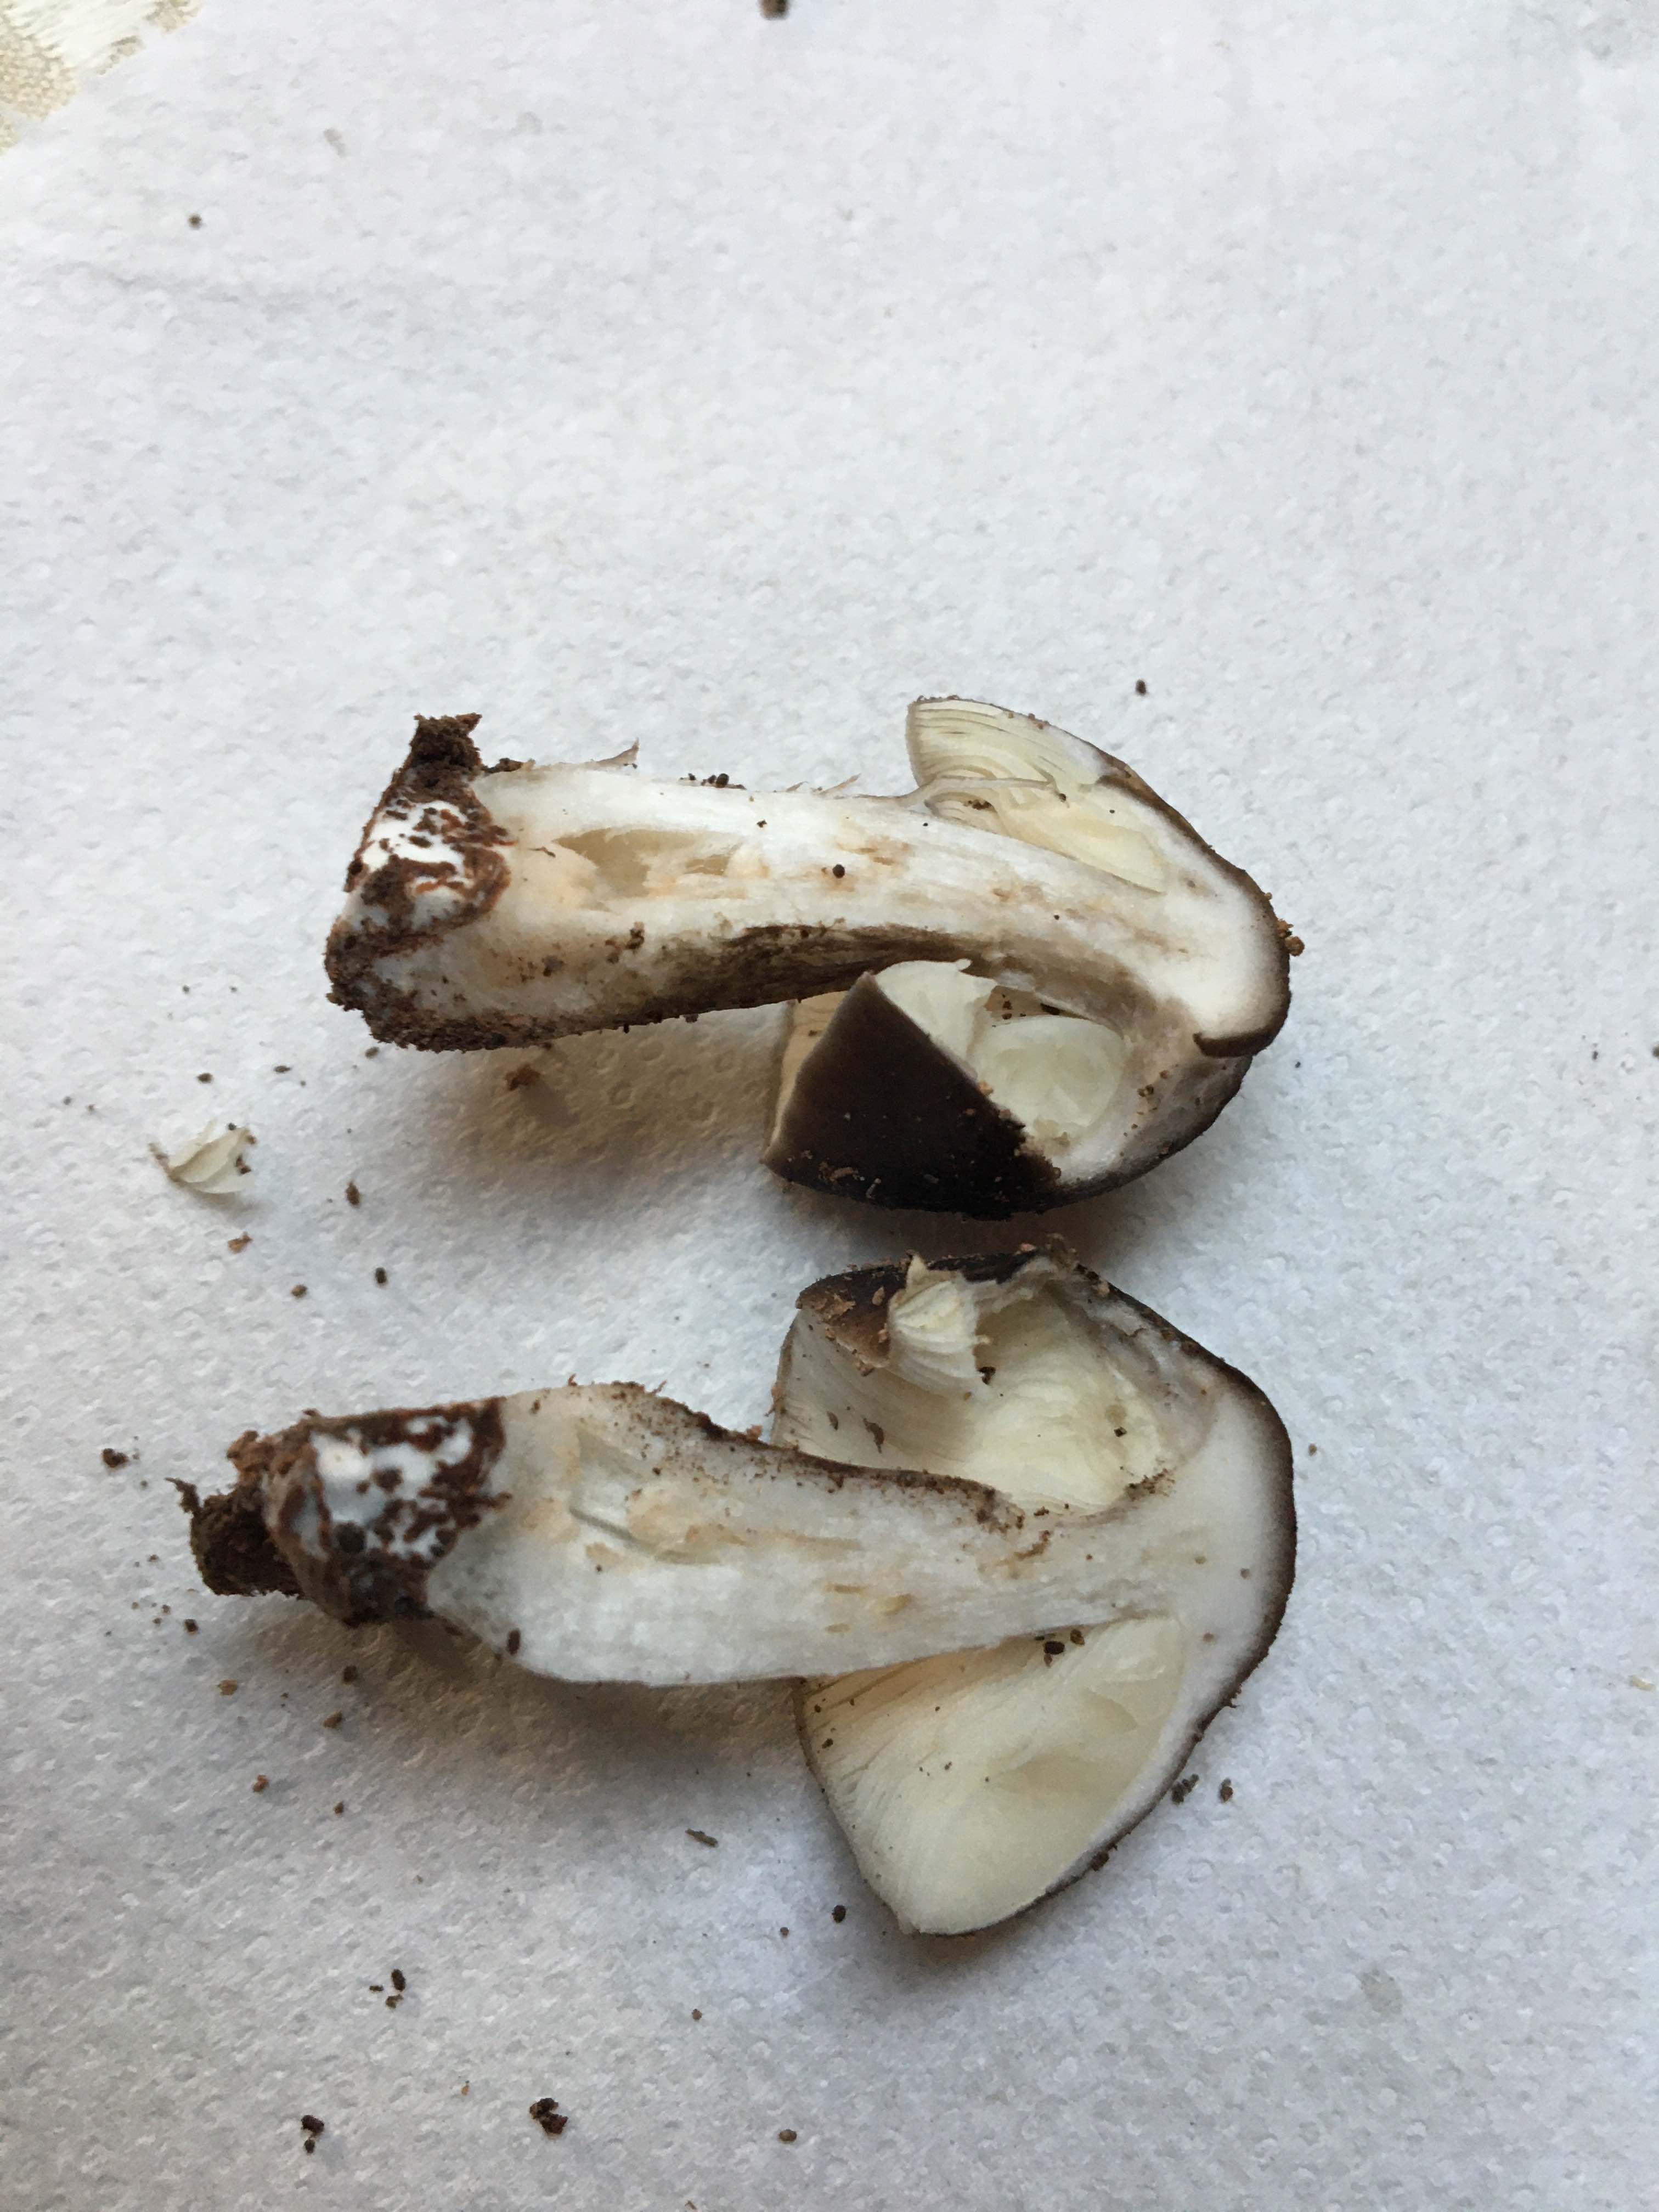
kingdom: Fungi
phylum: Basidiomycota
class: Agaricomycetes
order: Agaricales
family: Pluteaceae
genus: Pluteus
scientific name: Pluteus cervinus
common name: sodfarvet skærmhat
